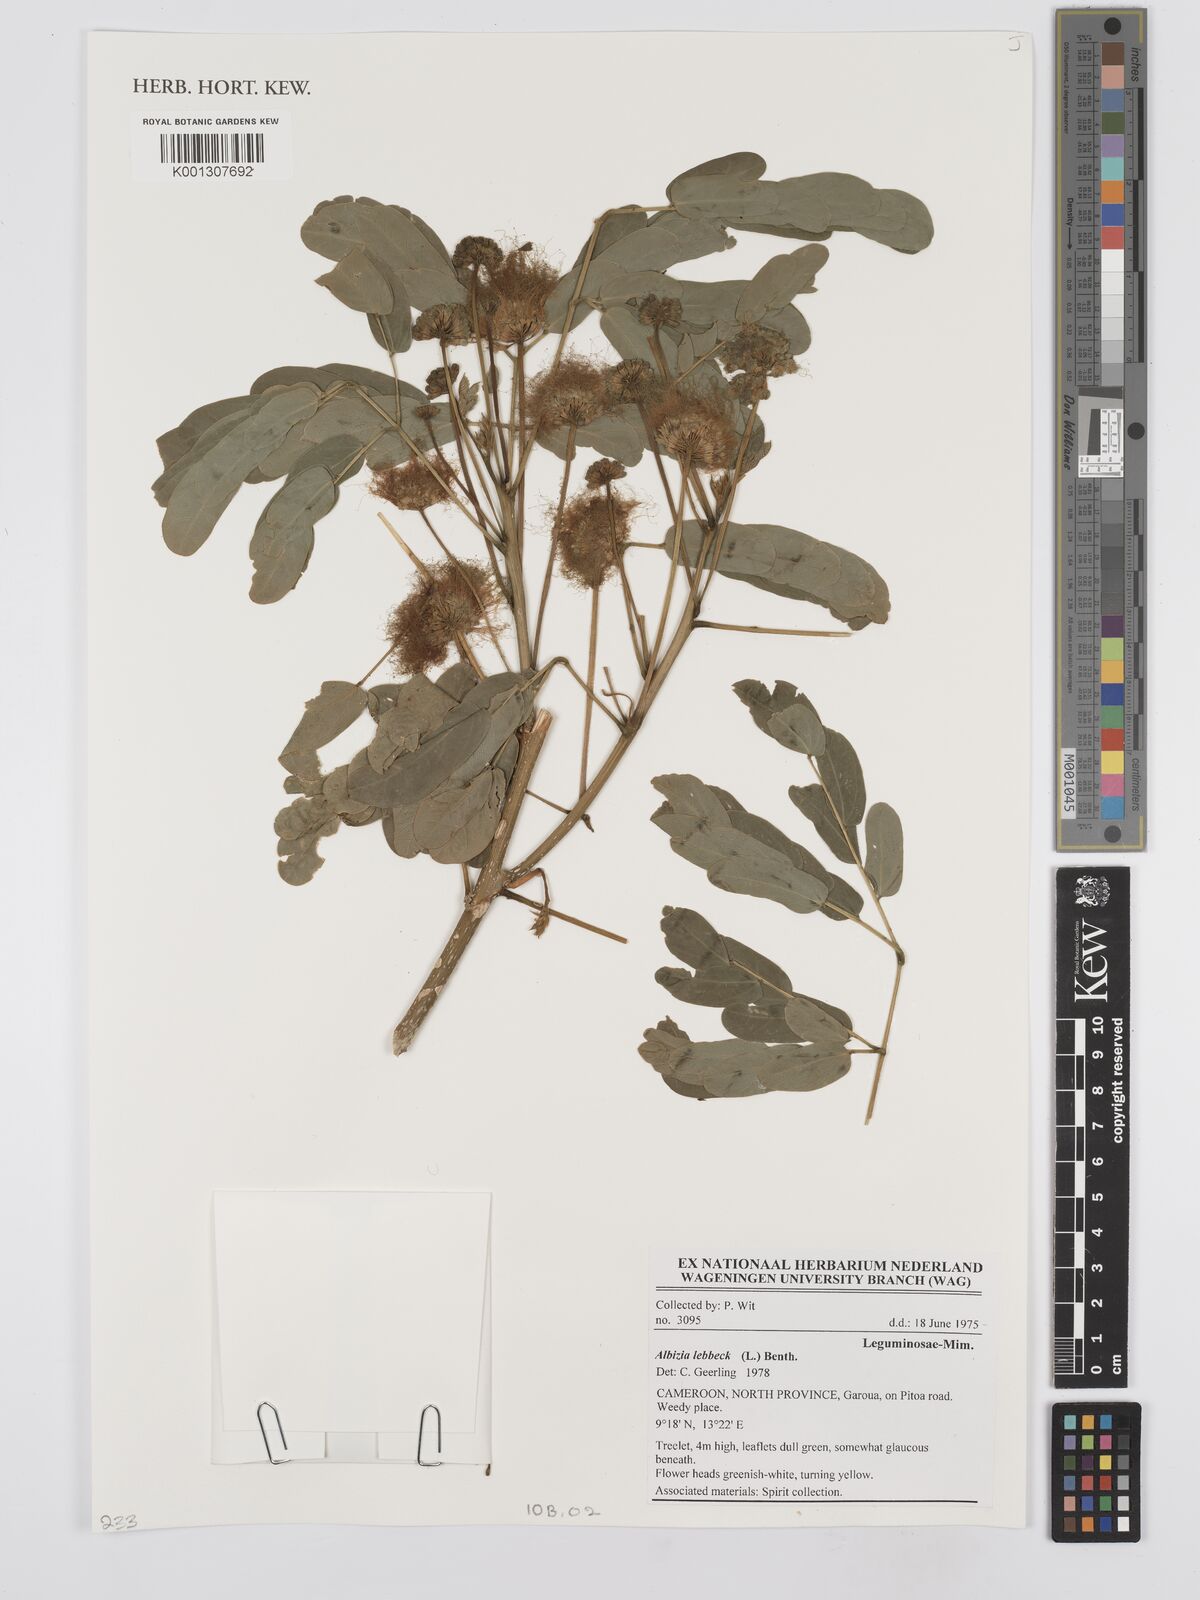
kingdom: Plantae
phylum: Tracheophyta
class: Magnoliopsida
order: Fabales
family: Fabaceae
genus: Albizia
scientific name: Albizia lebbeck
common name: Woman's tongue
